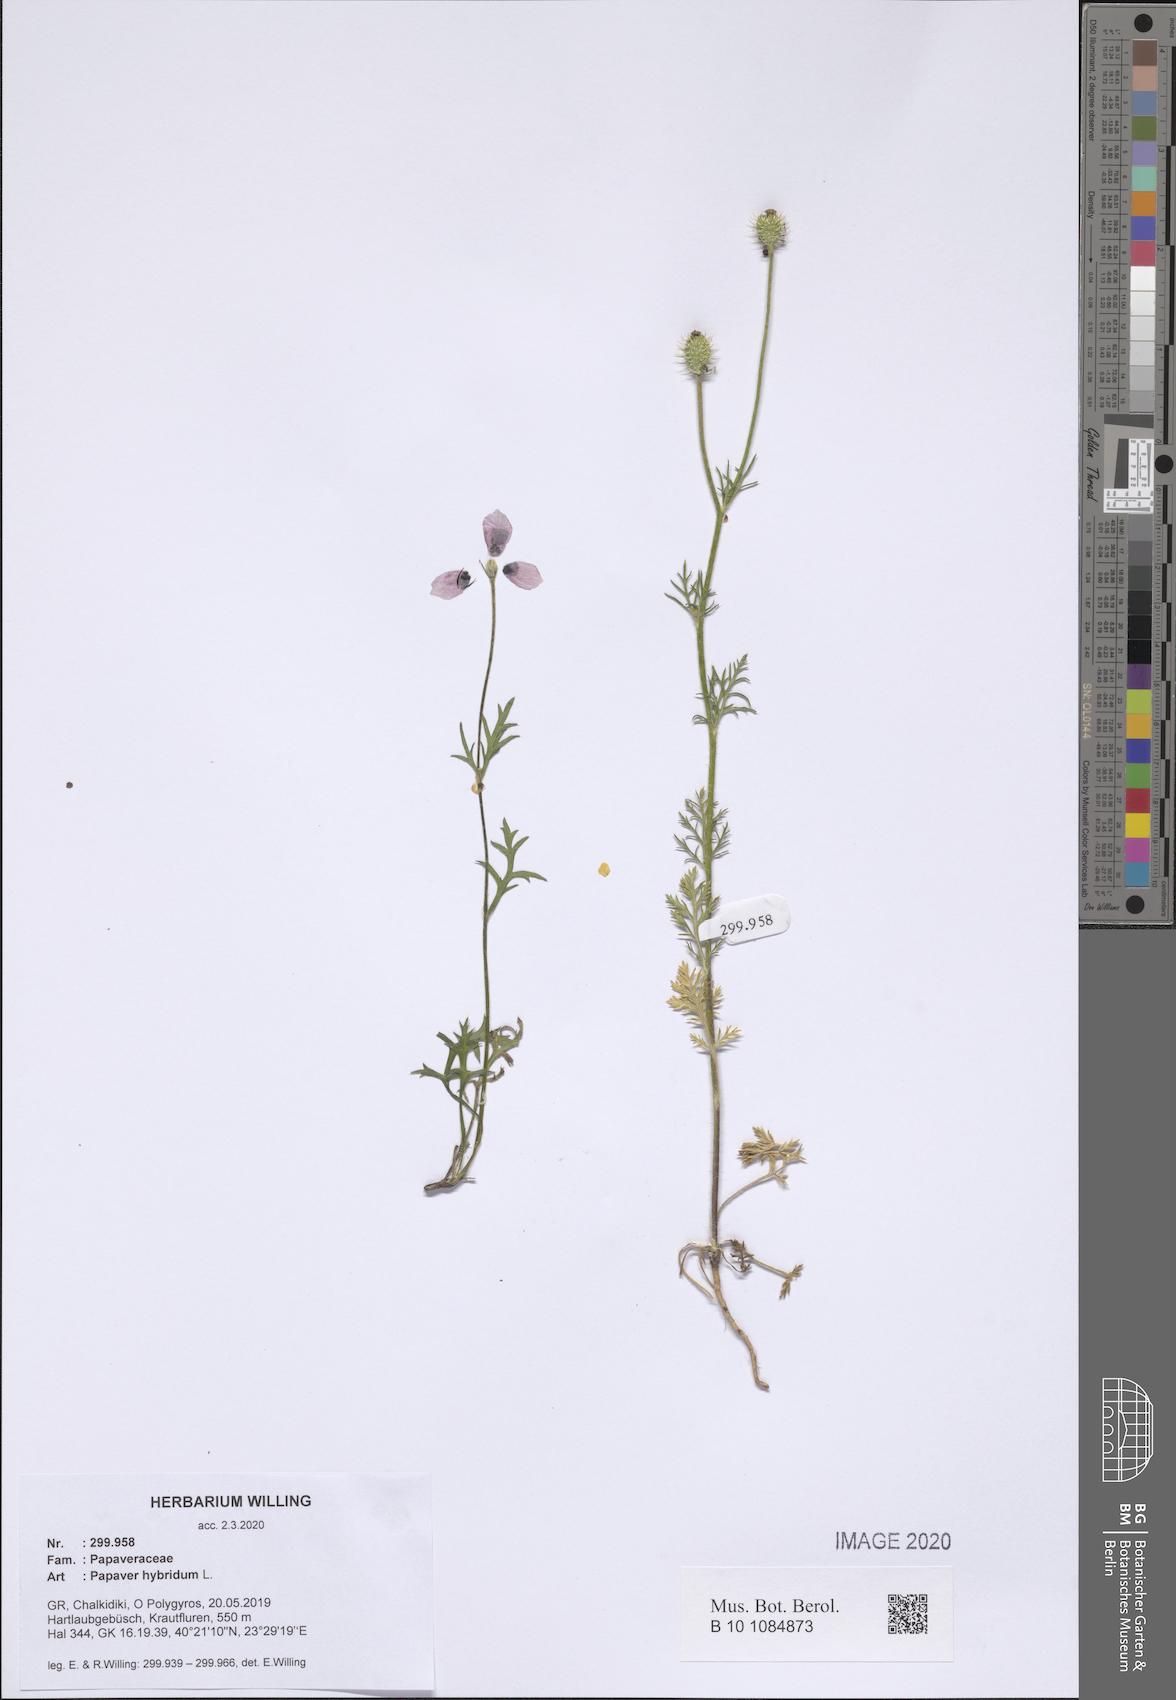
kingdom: Plantae
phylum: Tracheophyta
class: Magnoliopsida
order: Ranunculales
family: Papaveraceae
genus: Roemeria
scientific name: Roemeria hispida
